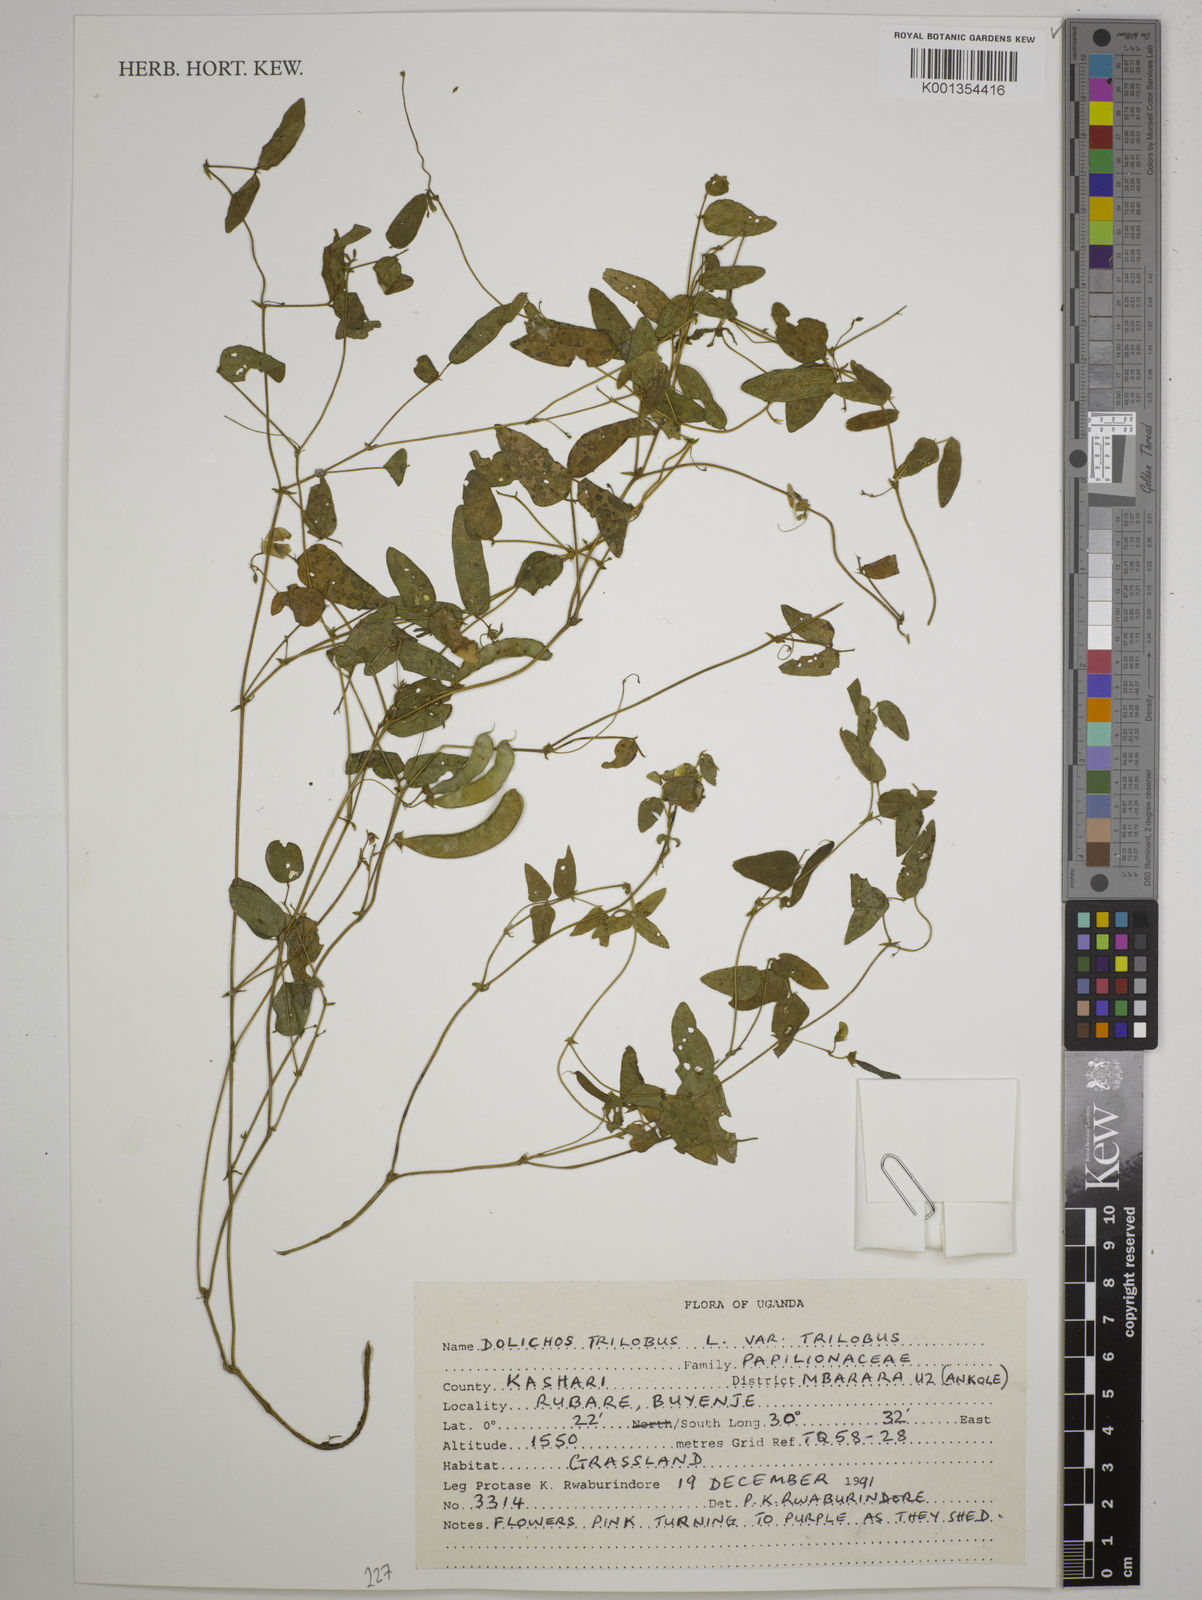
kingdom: Plantae
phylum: Tracheophyta
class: Magnoliopsida
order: Fabales
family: Fabaceae
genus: Dolichos
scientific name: Dolichos
